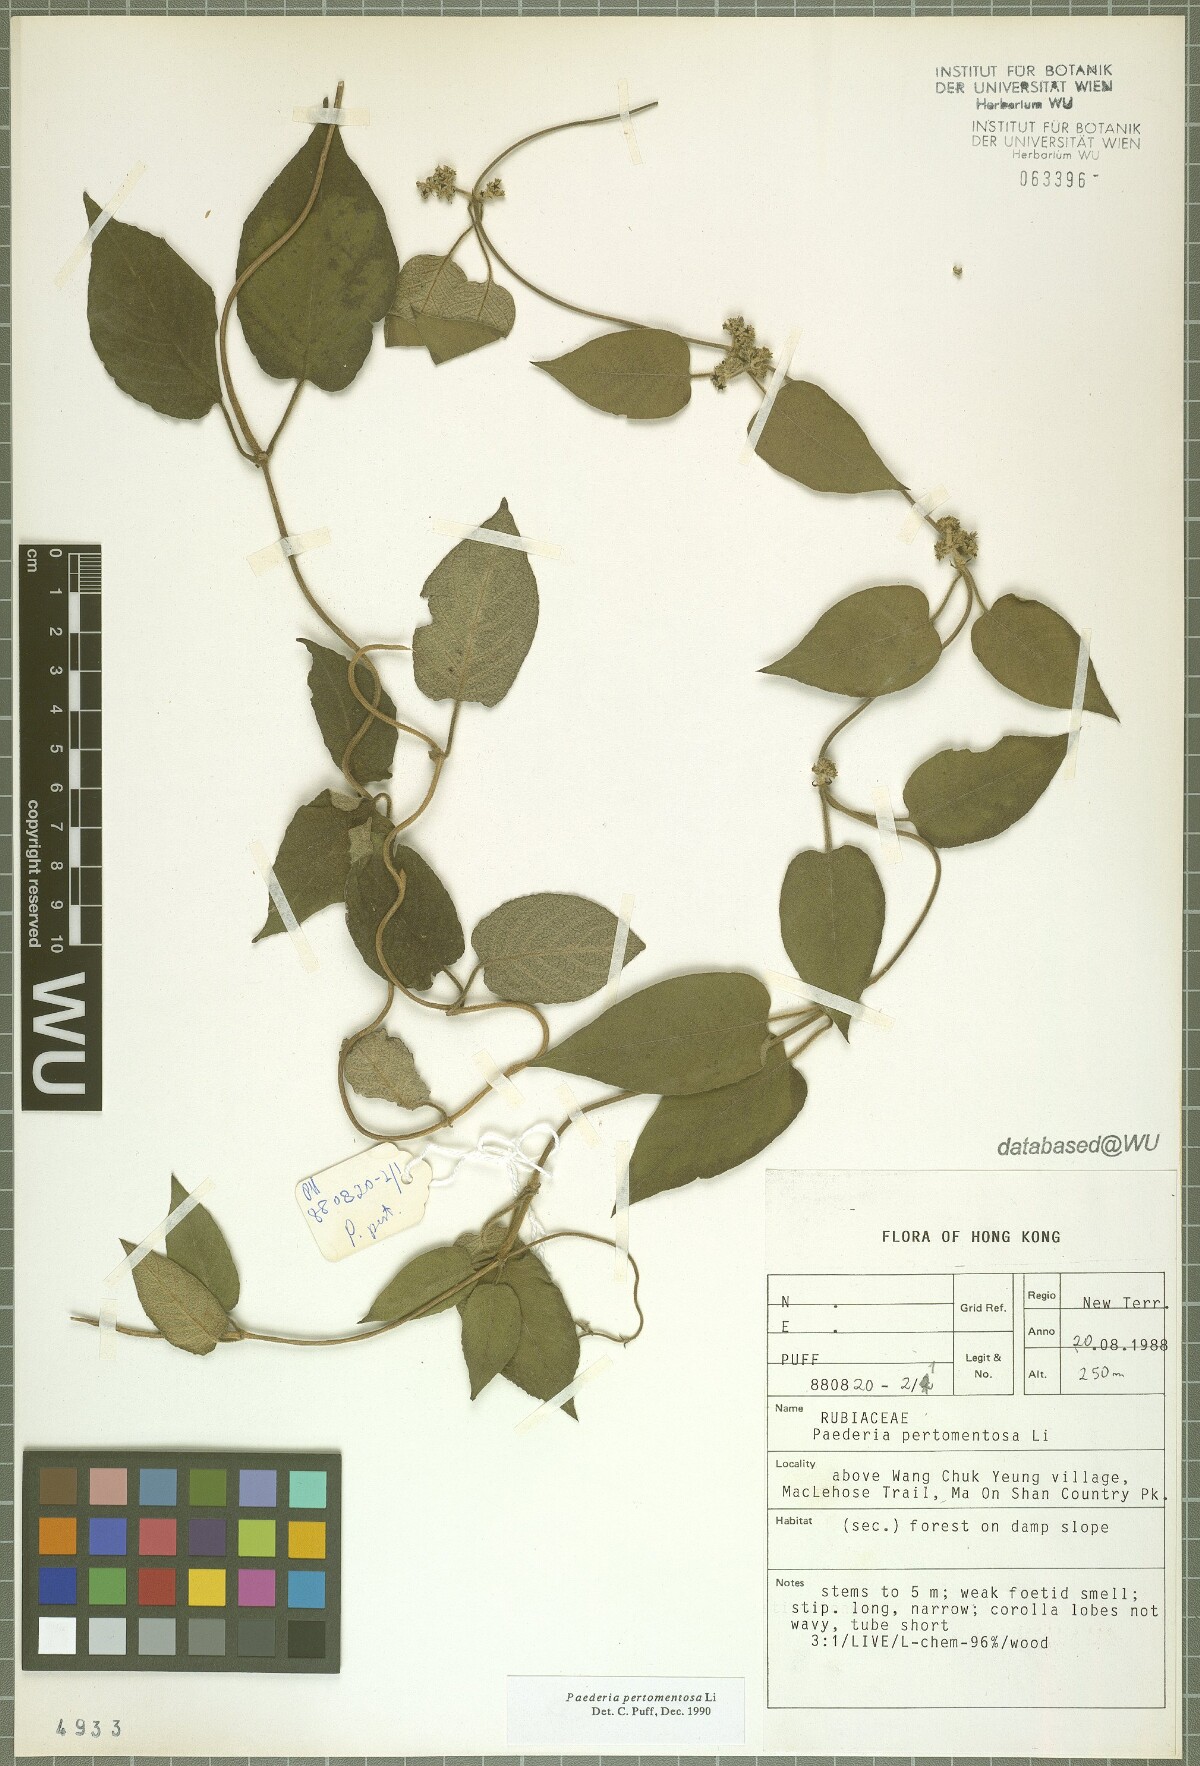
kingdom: Plantae
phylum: Tracheophyta
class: Magnoliopsida
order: Gentianales
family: Rubiaceae
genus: Paederia
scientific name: Paederia pertomentosa
